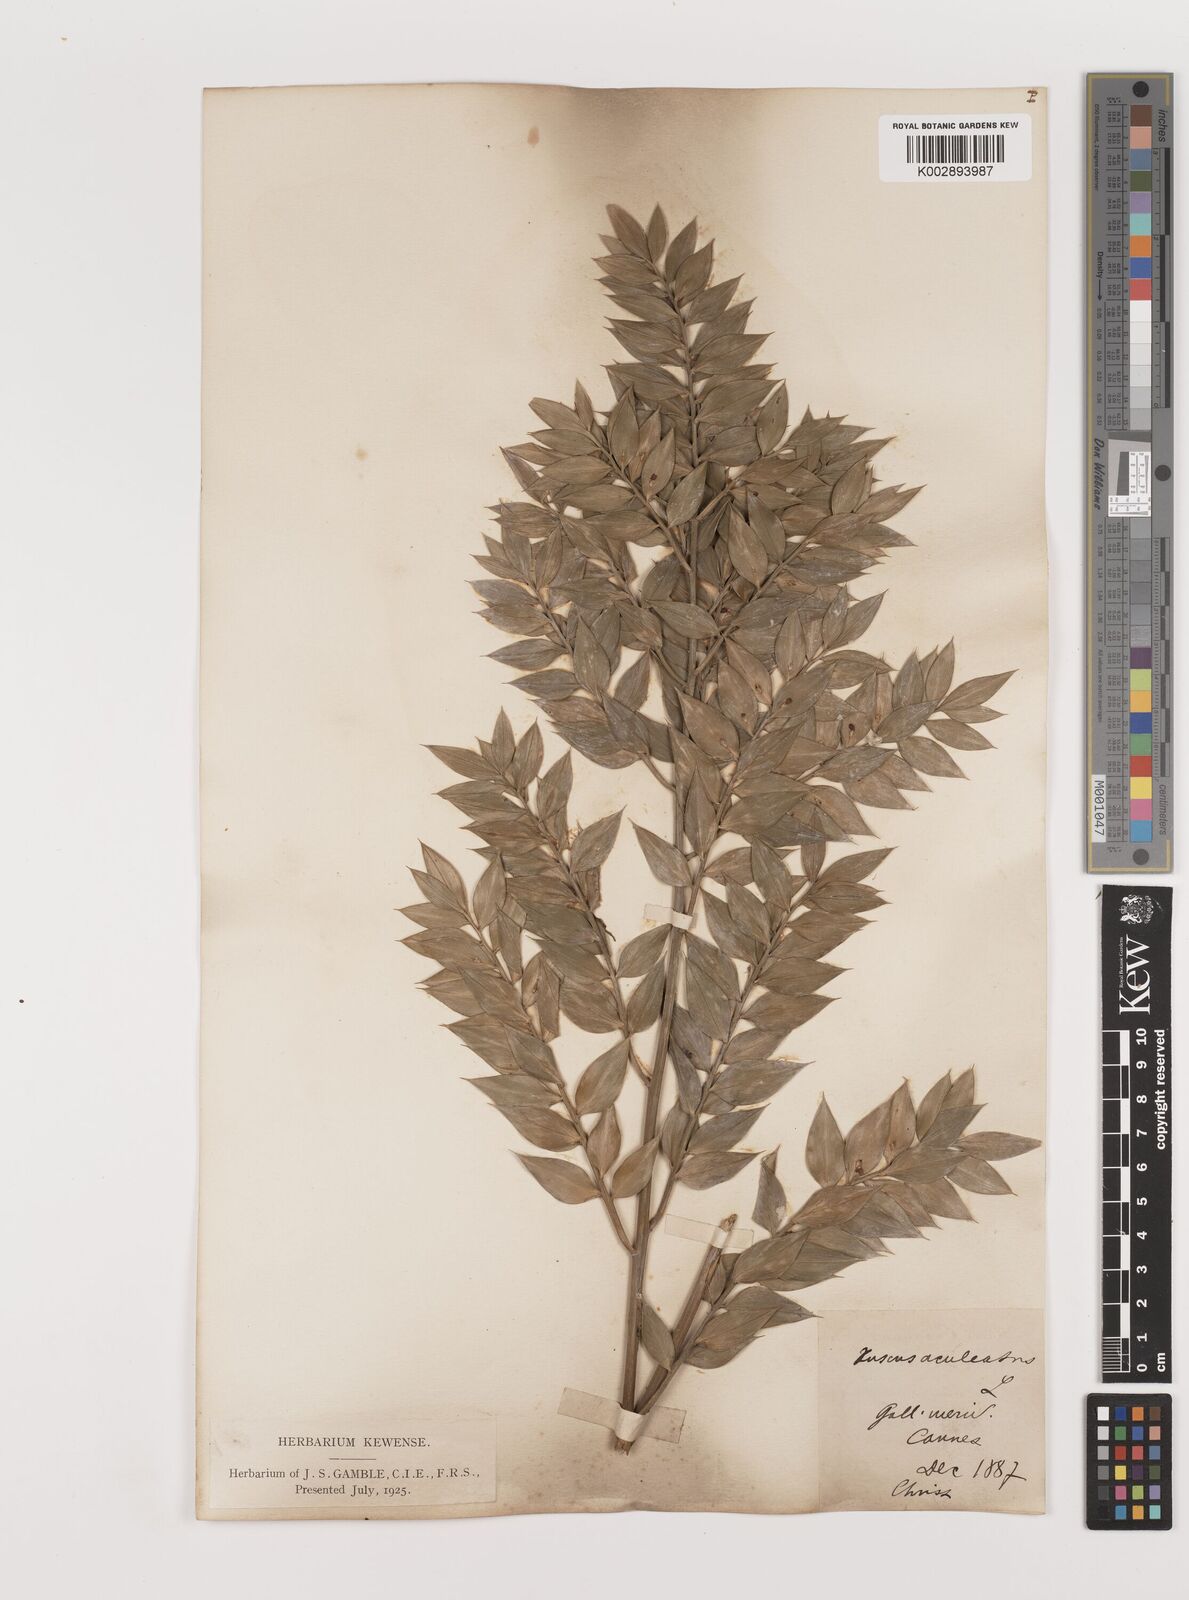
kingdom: Plantae
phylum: Tracheophyta
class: Liliopsida
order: Asparagales
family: Asparagaceae
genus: Ruscus
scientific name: Ruscus aculeatus
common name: Butcher's-broom
